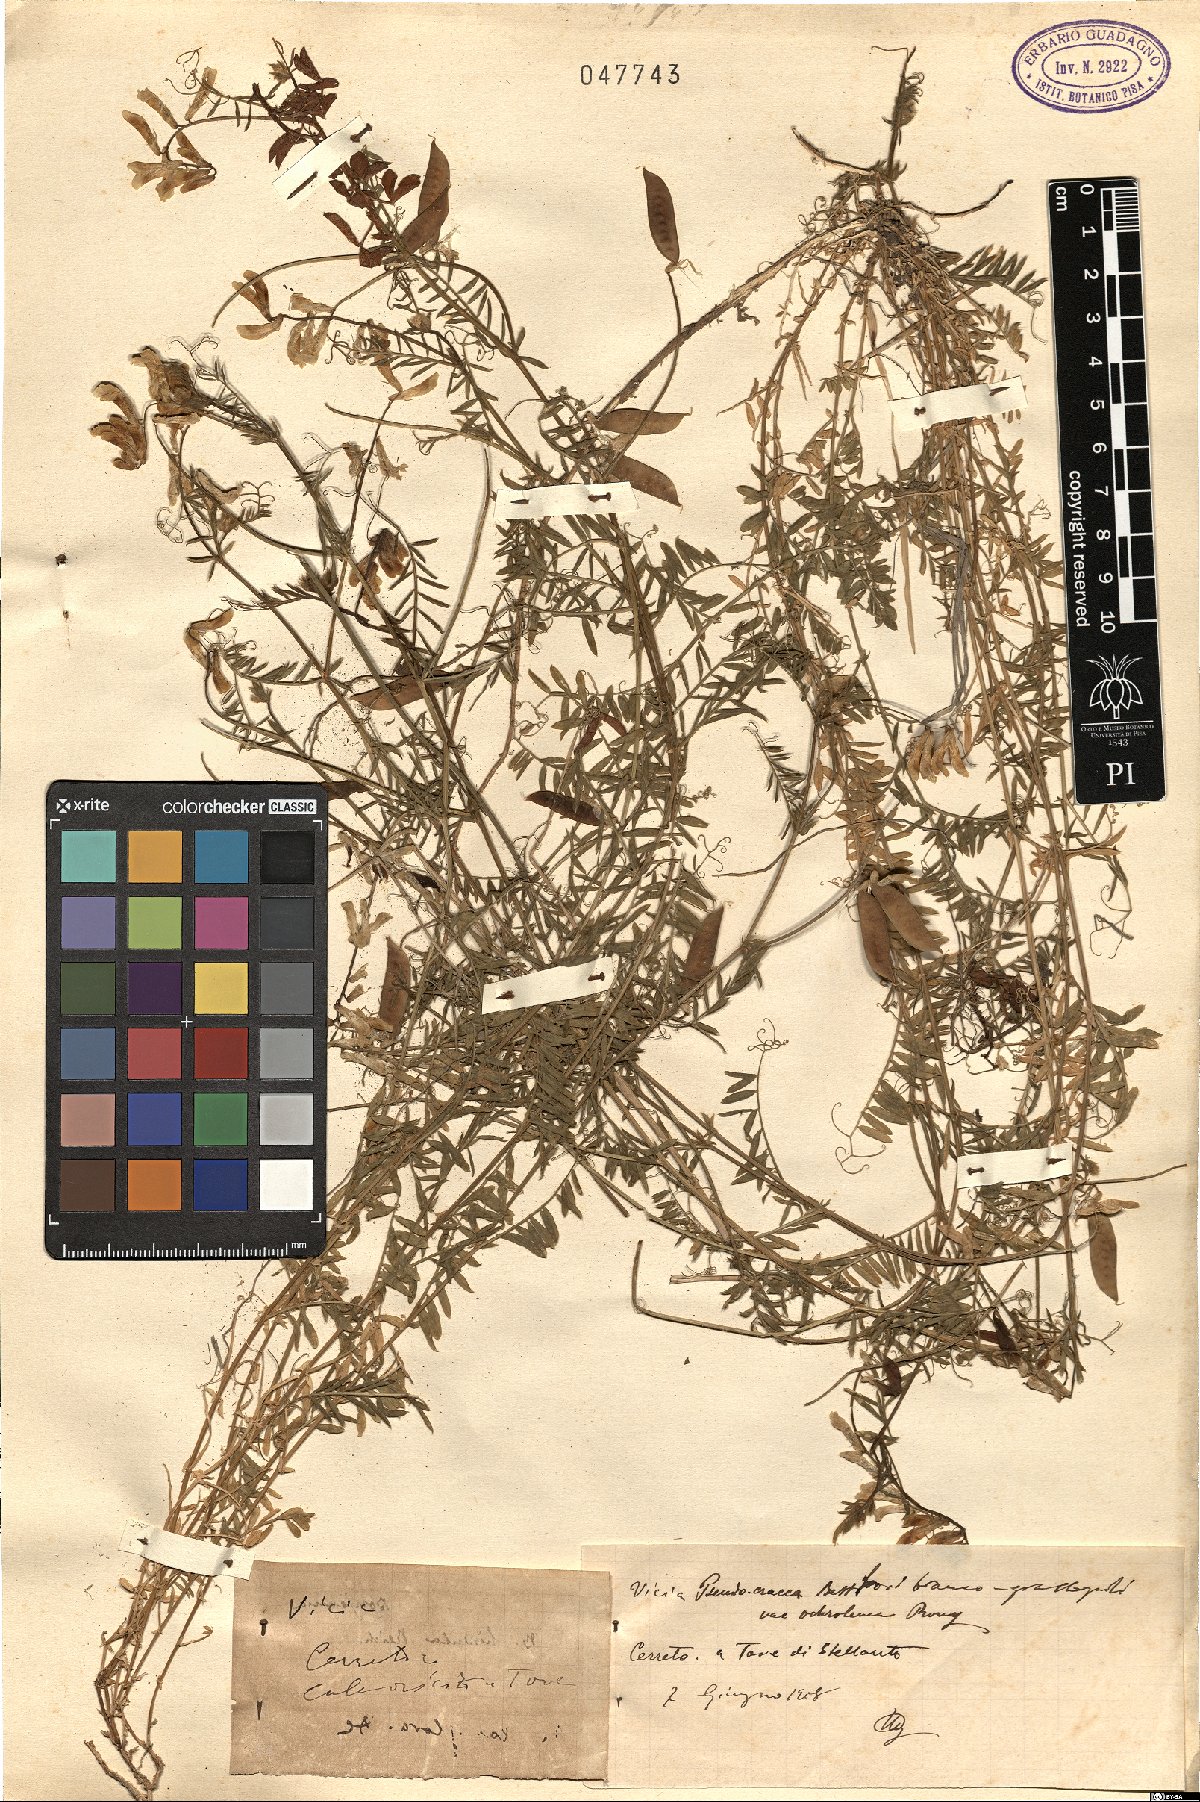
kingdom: Plantae
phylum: Tracheophyta
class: Magnoliopsida
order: Fabales
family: Fabaceae
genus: Vicia
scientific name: Vicia
